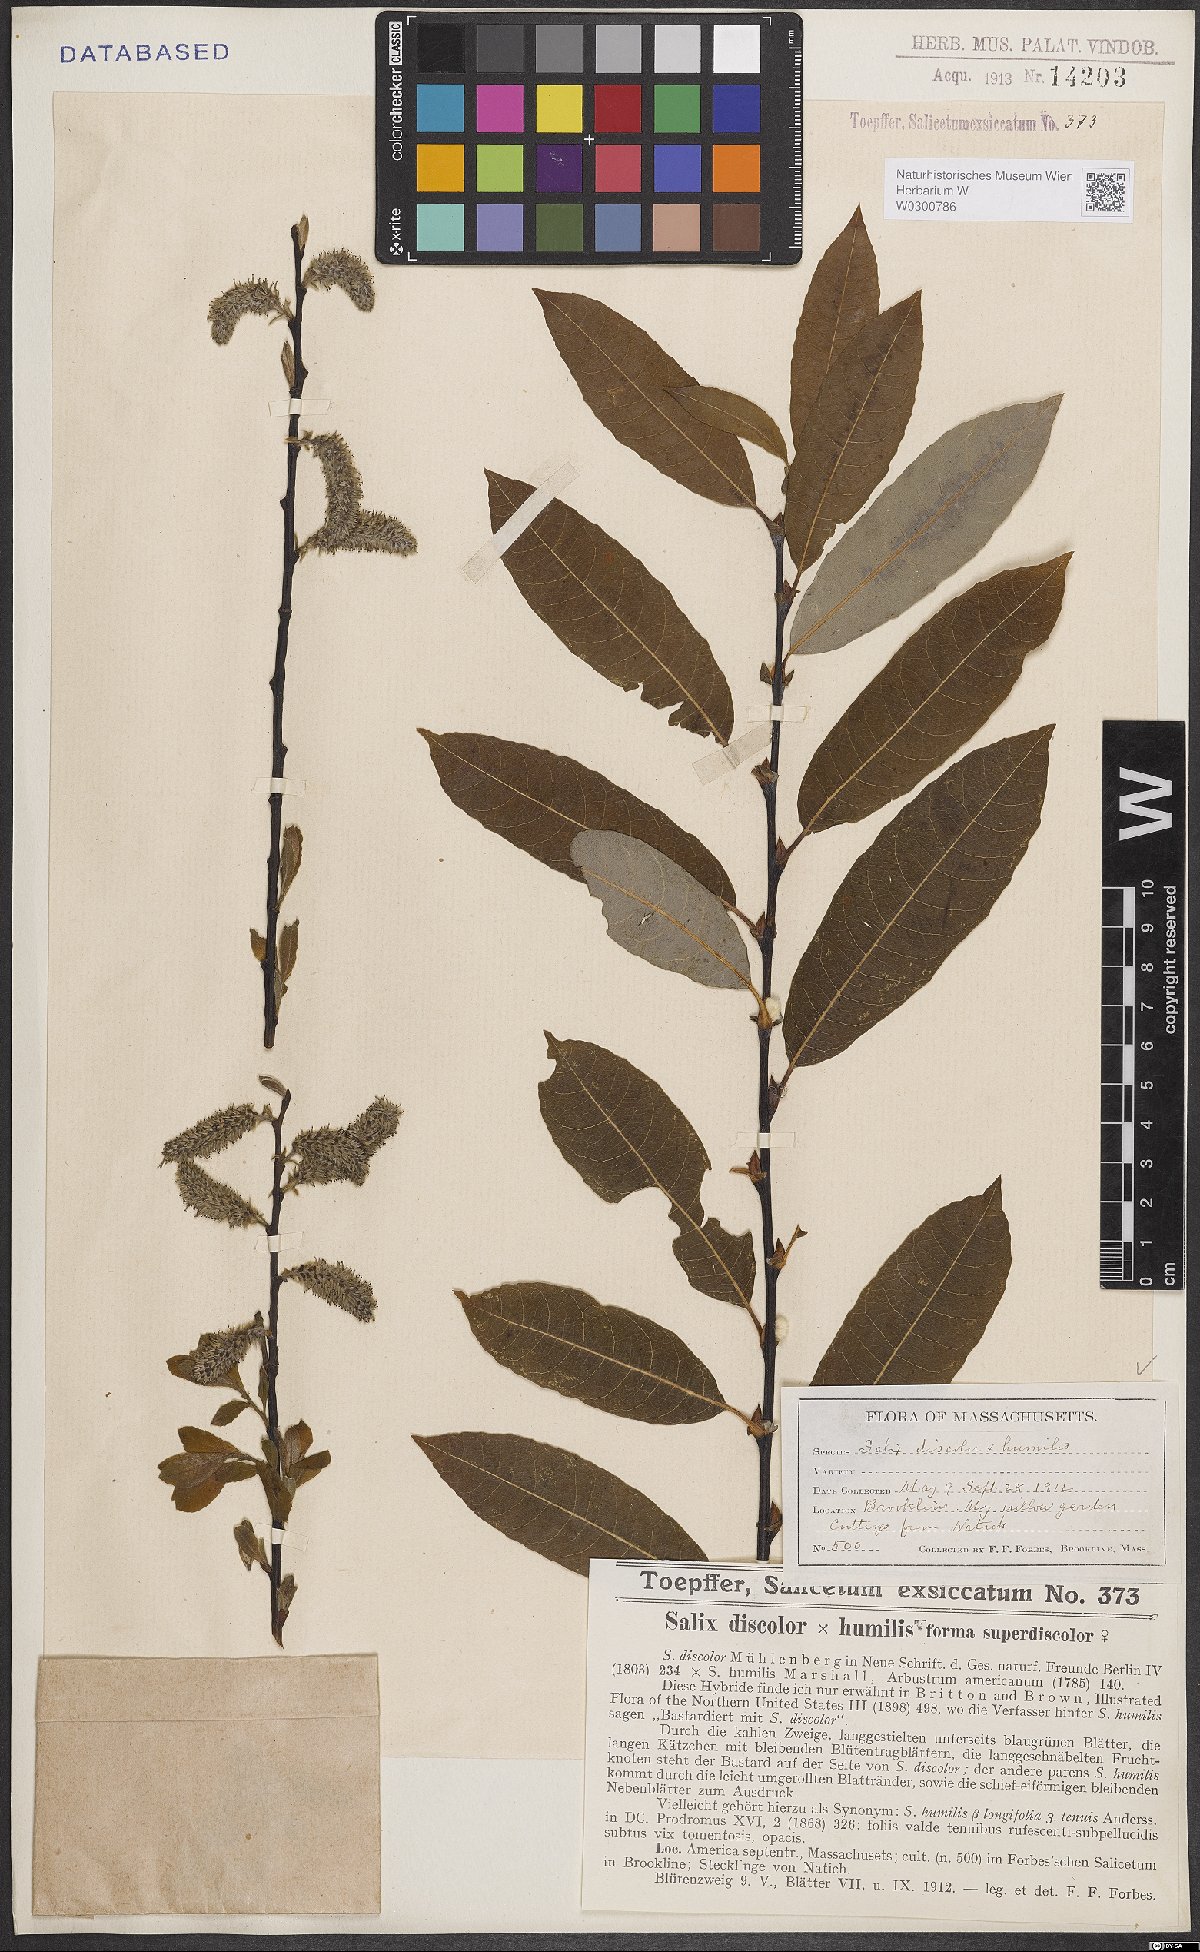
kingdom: Plantae
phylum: Tracheophyta
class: Magnoliopsida
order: Malpighiales
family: Salicaceae
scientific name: Salicaceae
